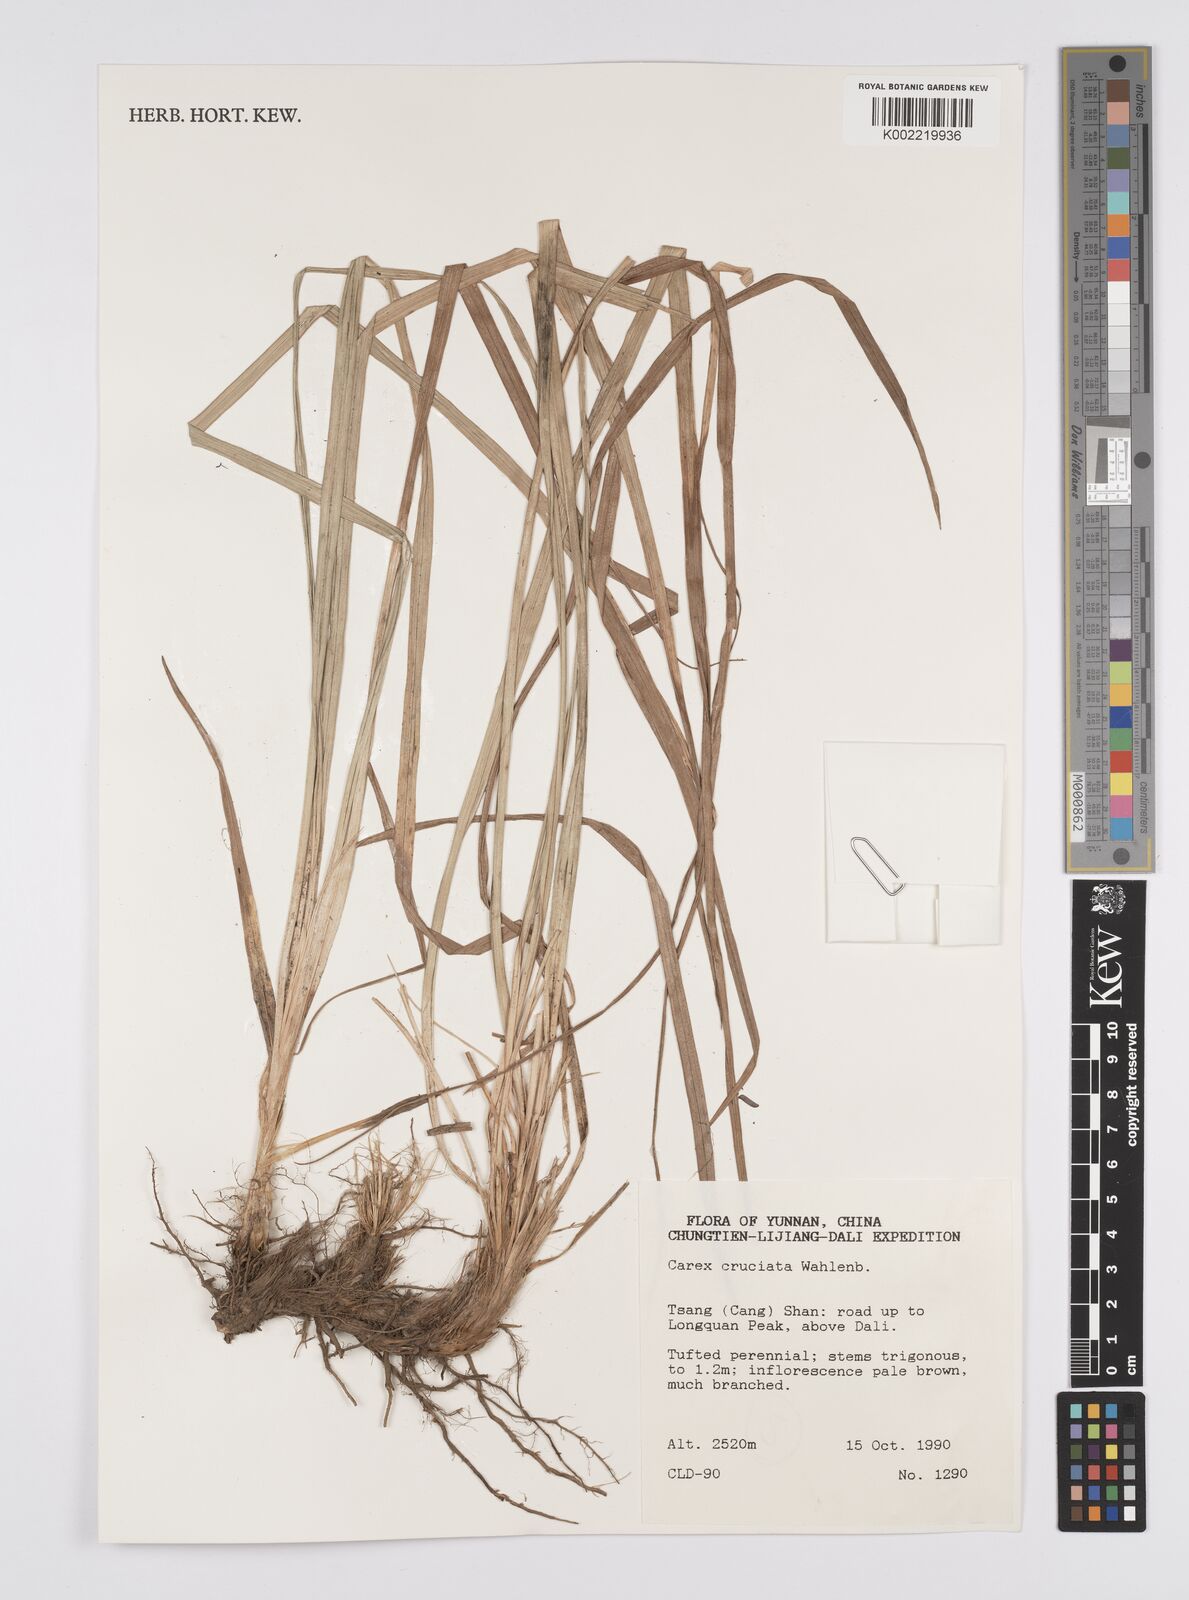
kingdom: Plantae
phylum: Tracheophyta
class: Liliopsida
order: Poales
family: Cyperaceae
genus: Carex
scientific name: Carex cruciata
